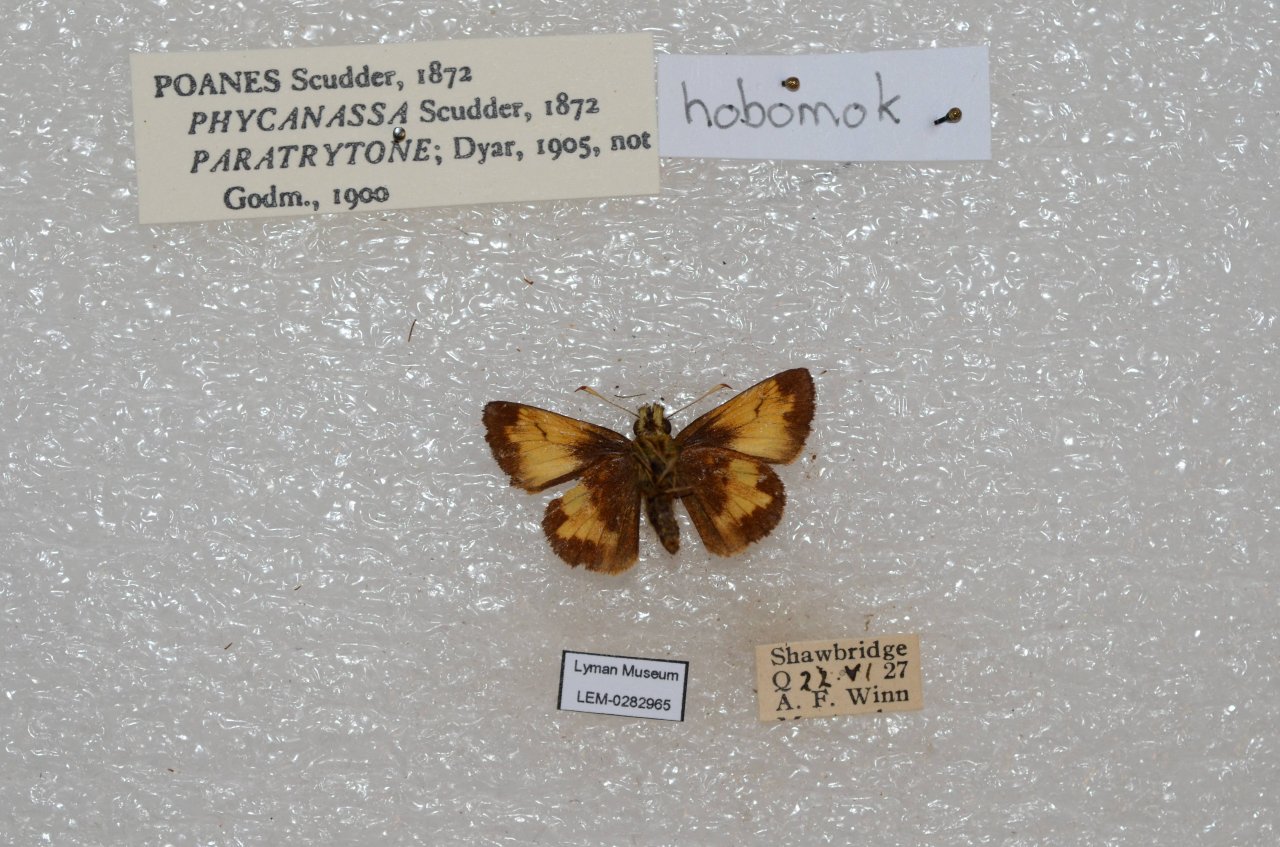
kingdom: Animalia
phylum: Arthropoda
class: Insecta
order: Lepidoptera
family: Hesperiidae
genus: Lon
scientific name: Lon hobomok
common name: Hobomok Skipper
